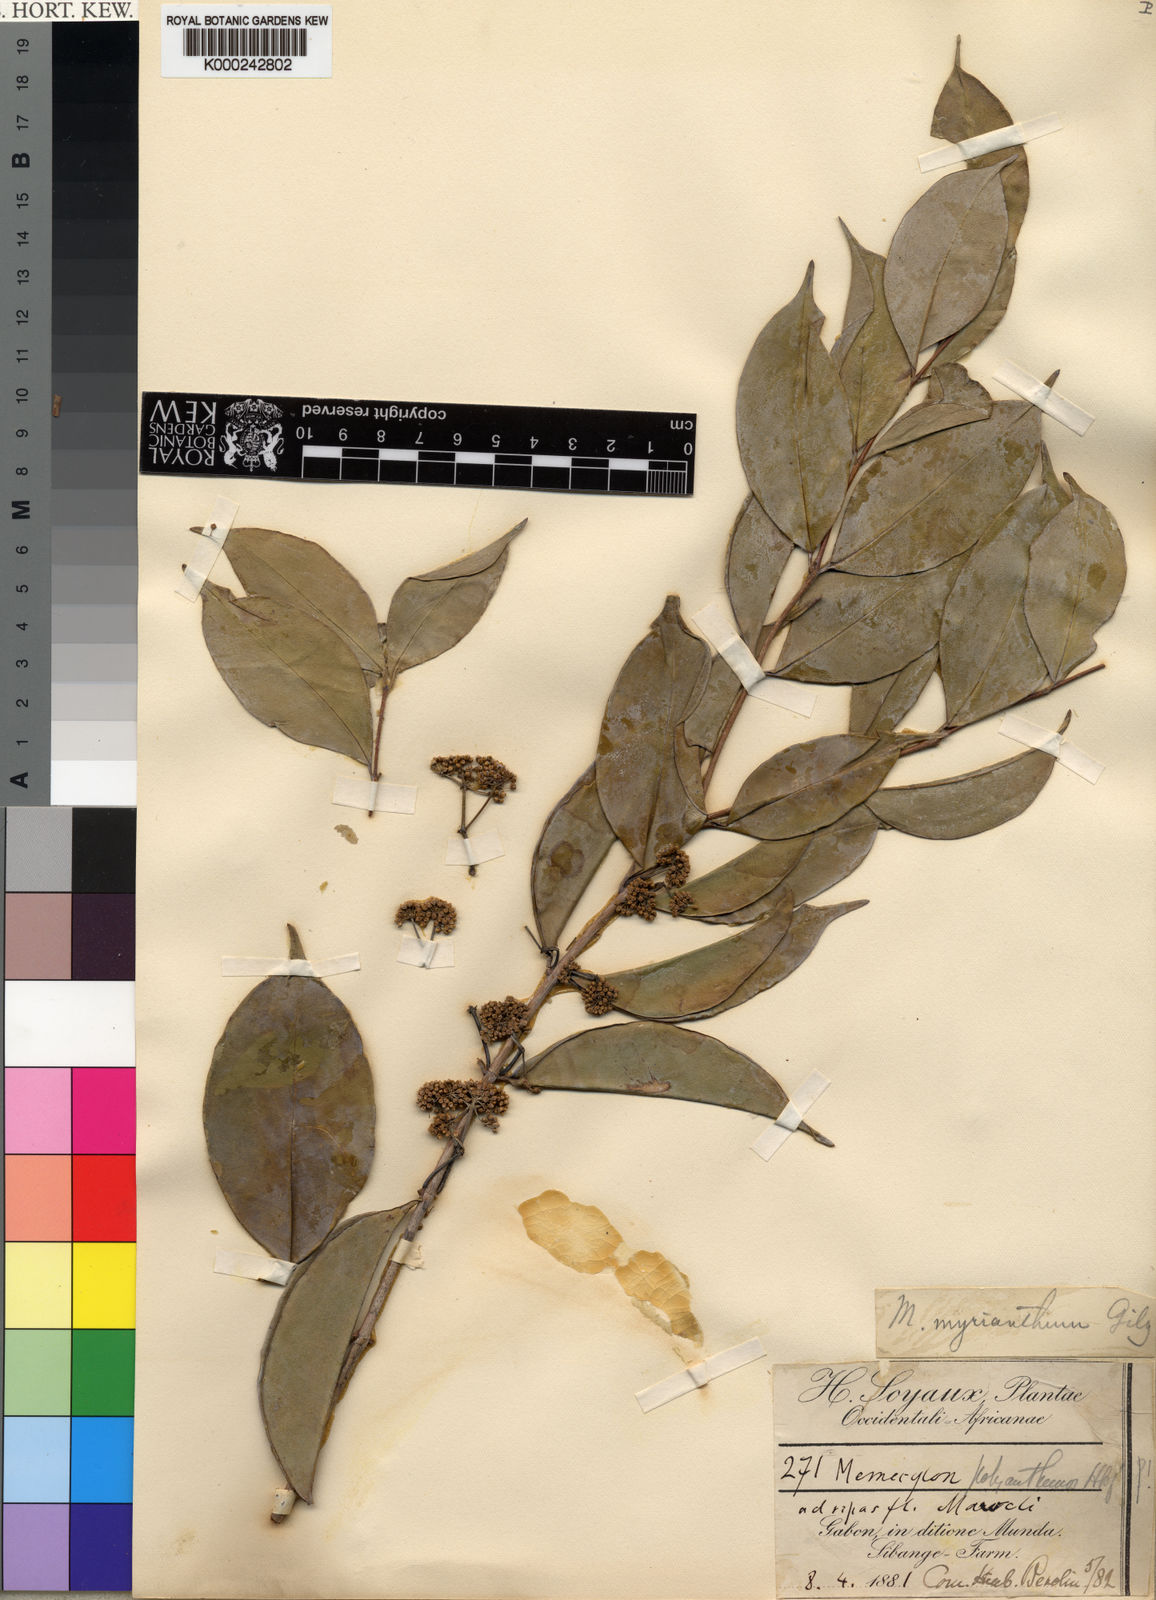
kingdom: Plantae
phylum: Tracheophyta
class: Magnoliopsida
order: Myrtales
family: Melastomataceae
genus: Memecylon
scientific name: Memecylon myrianthum
